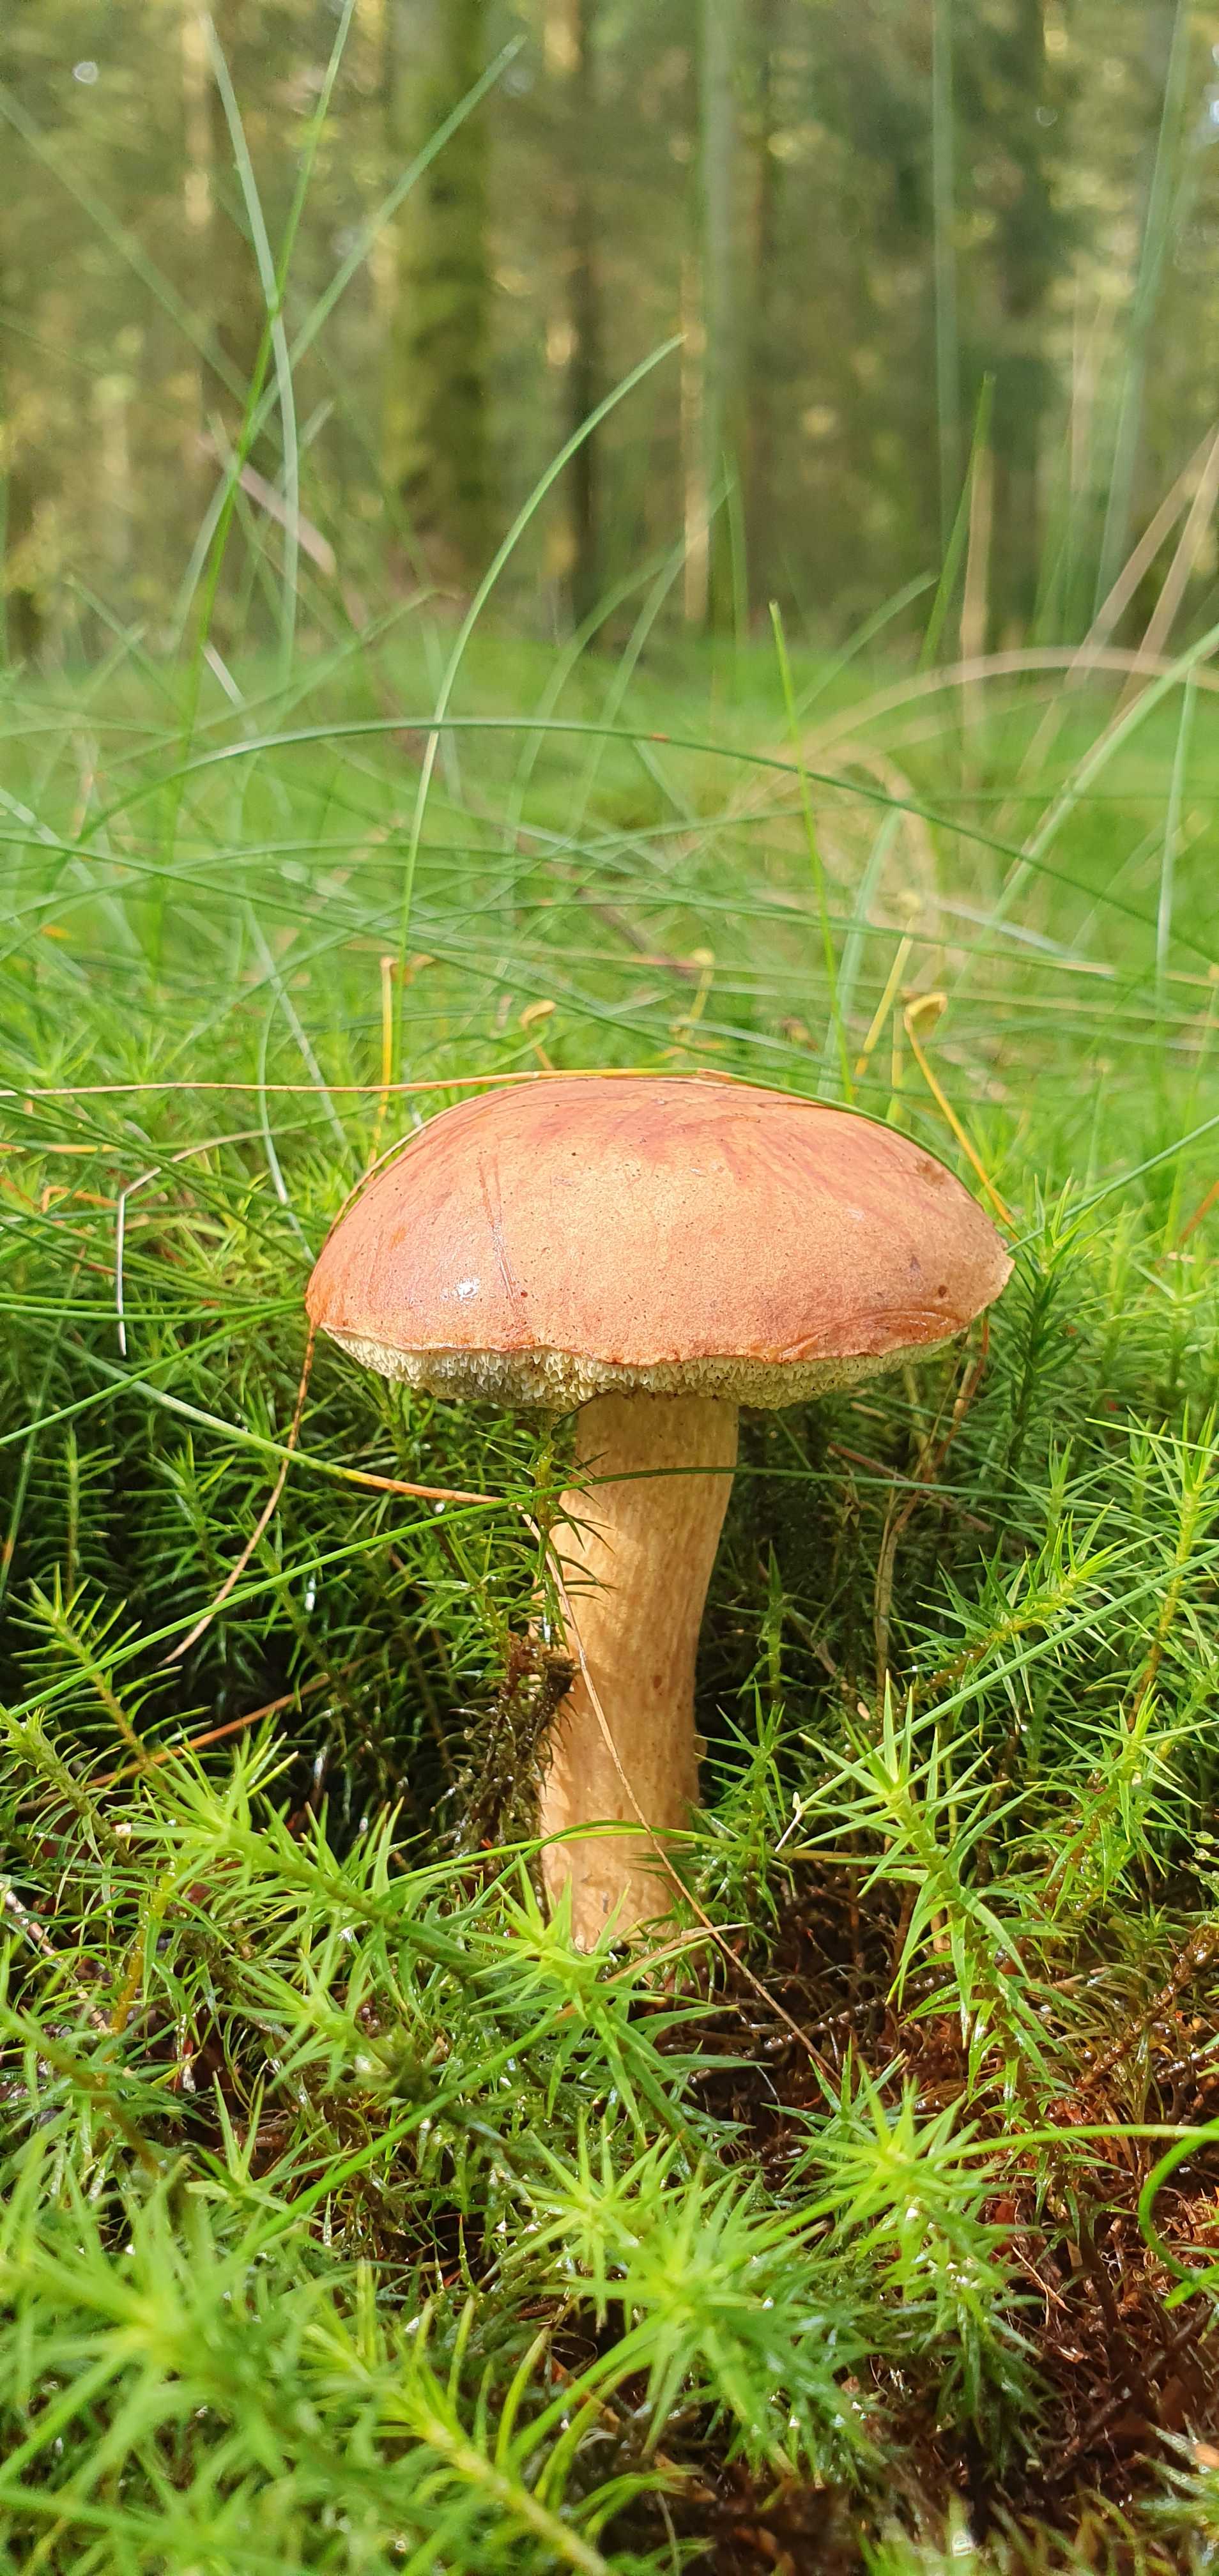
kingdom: Fungi
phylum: Basidiomycota
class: Agaricomycetes
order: Boletales
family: Boletaceae
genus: Imleria
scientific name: Imleria badia
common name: brunstokket rørhat
